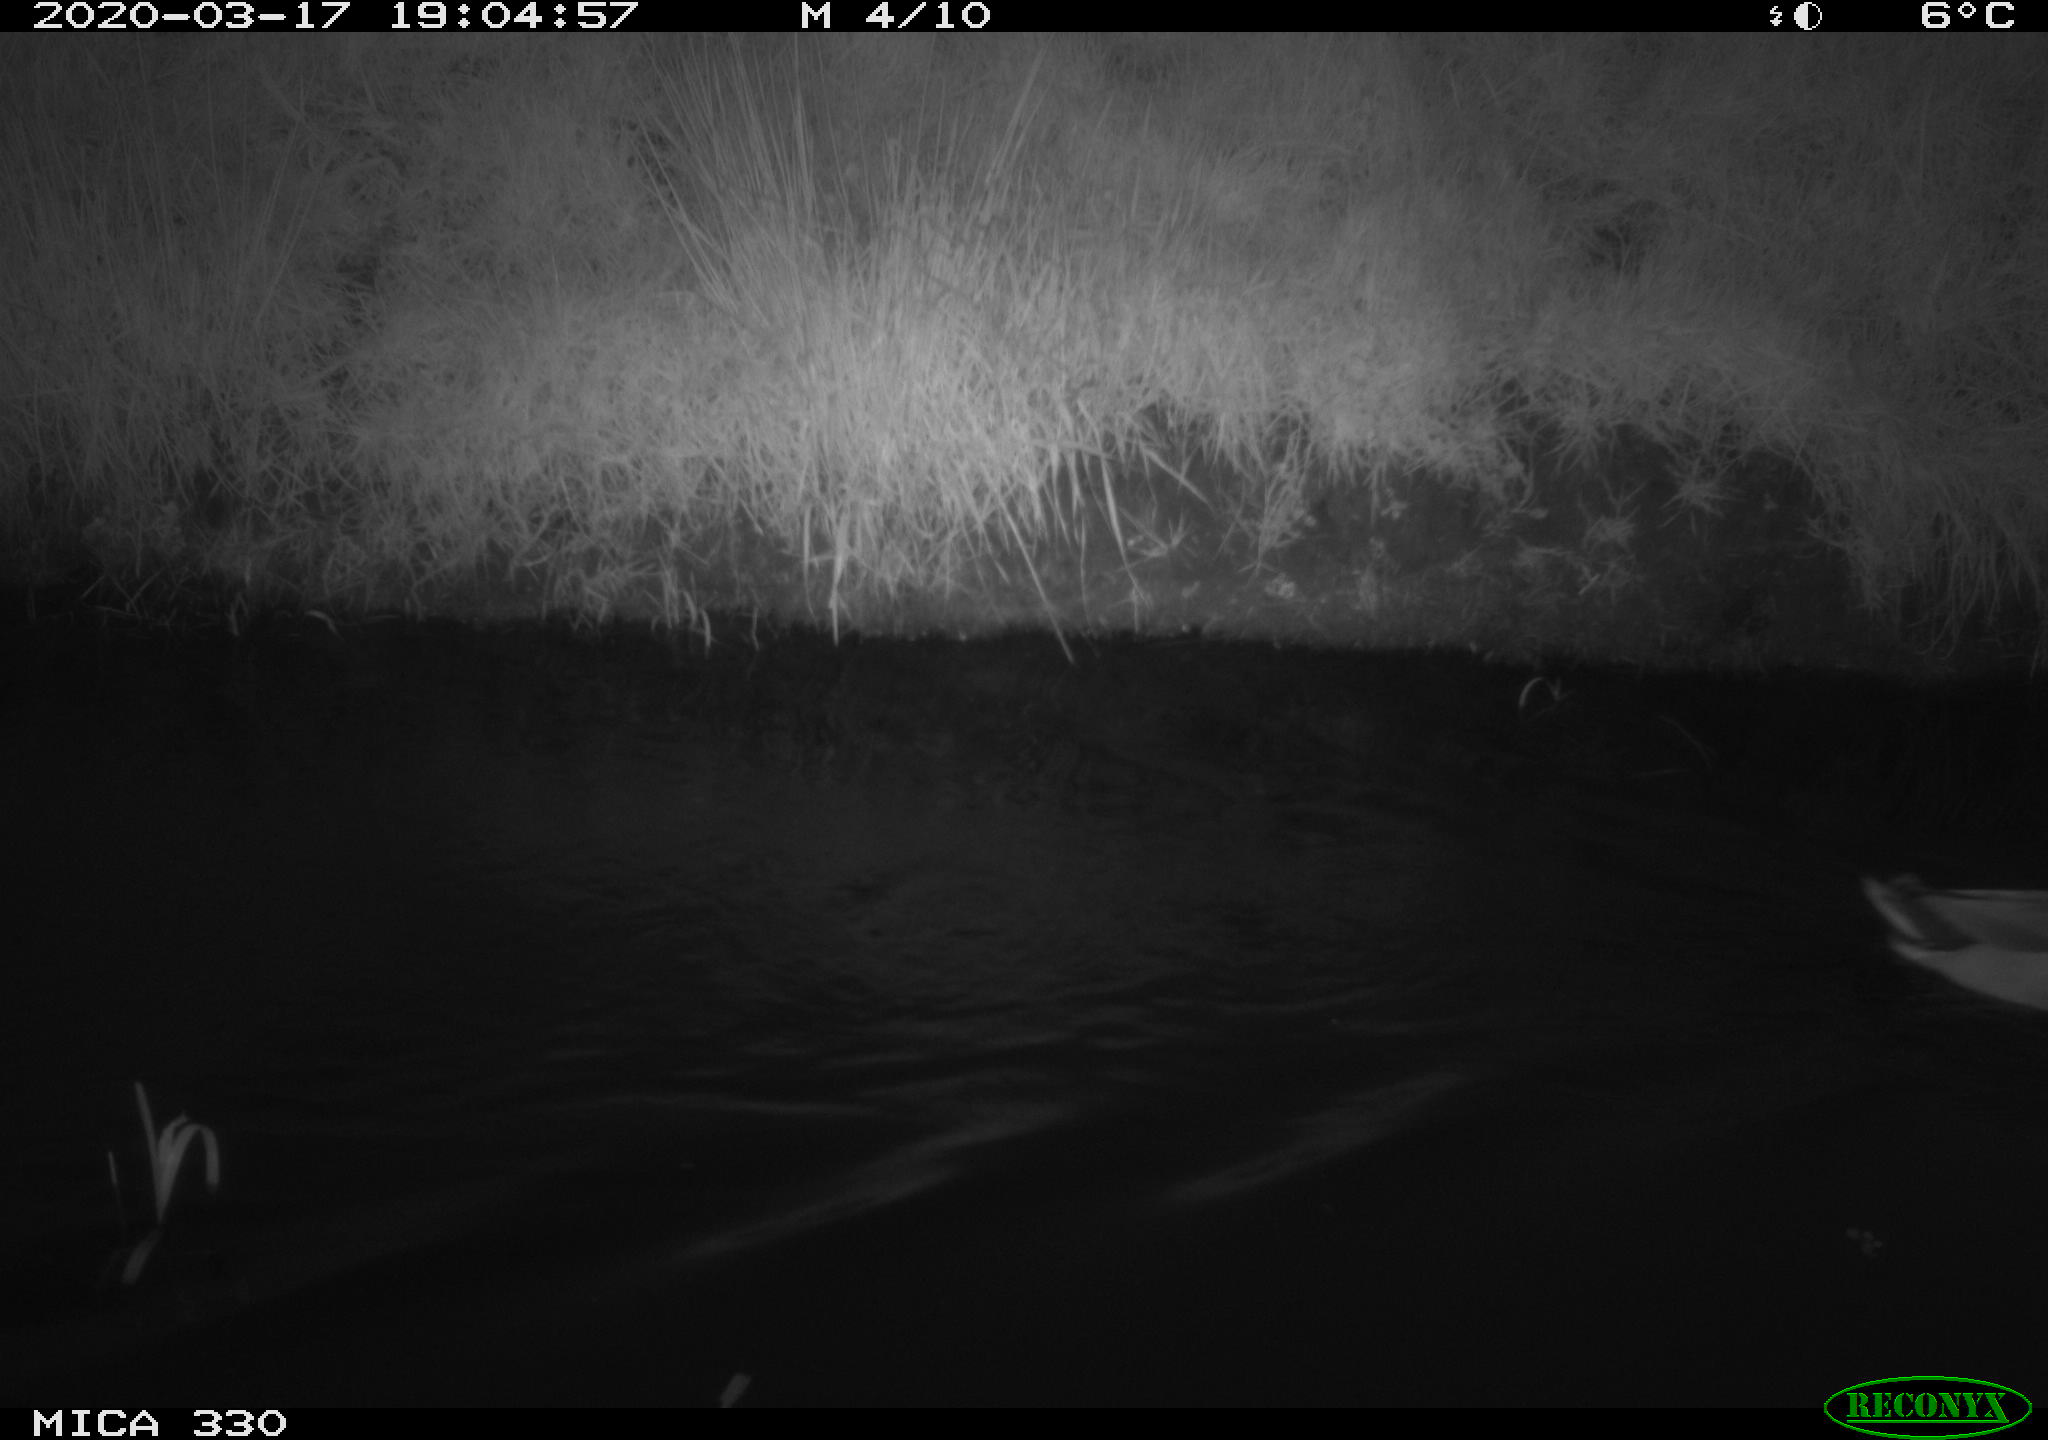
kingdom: Animalia
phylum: Chordata
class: Aves
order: Anseriformes
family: Anatidae
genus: Anas
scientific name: Anas platyrhynchos
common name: Mallard
